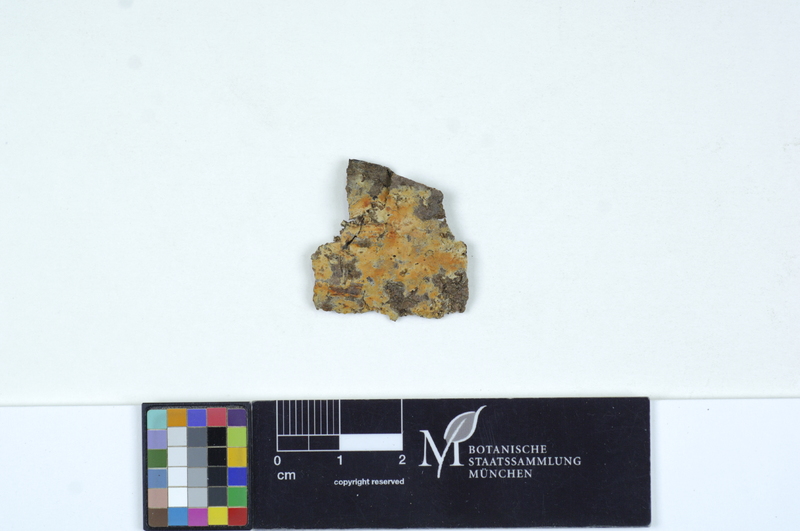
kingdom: Fungi
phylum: Basidiomycota
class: Agaricomycetes
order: Polyporales
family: Phanerochaetaceae
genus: Phanerochaete
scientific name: Phanerochaete sordida
